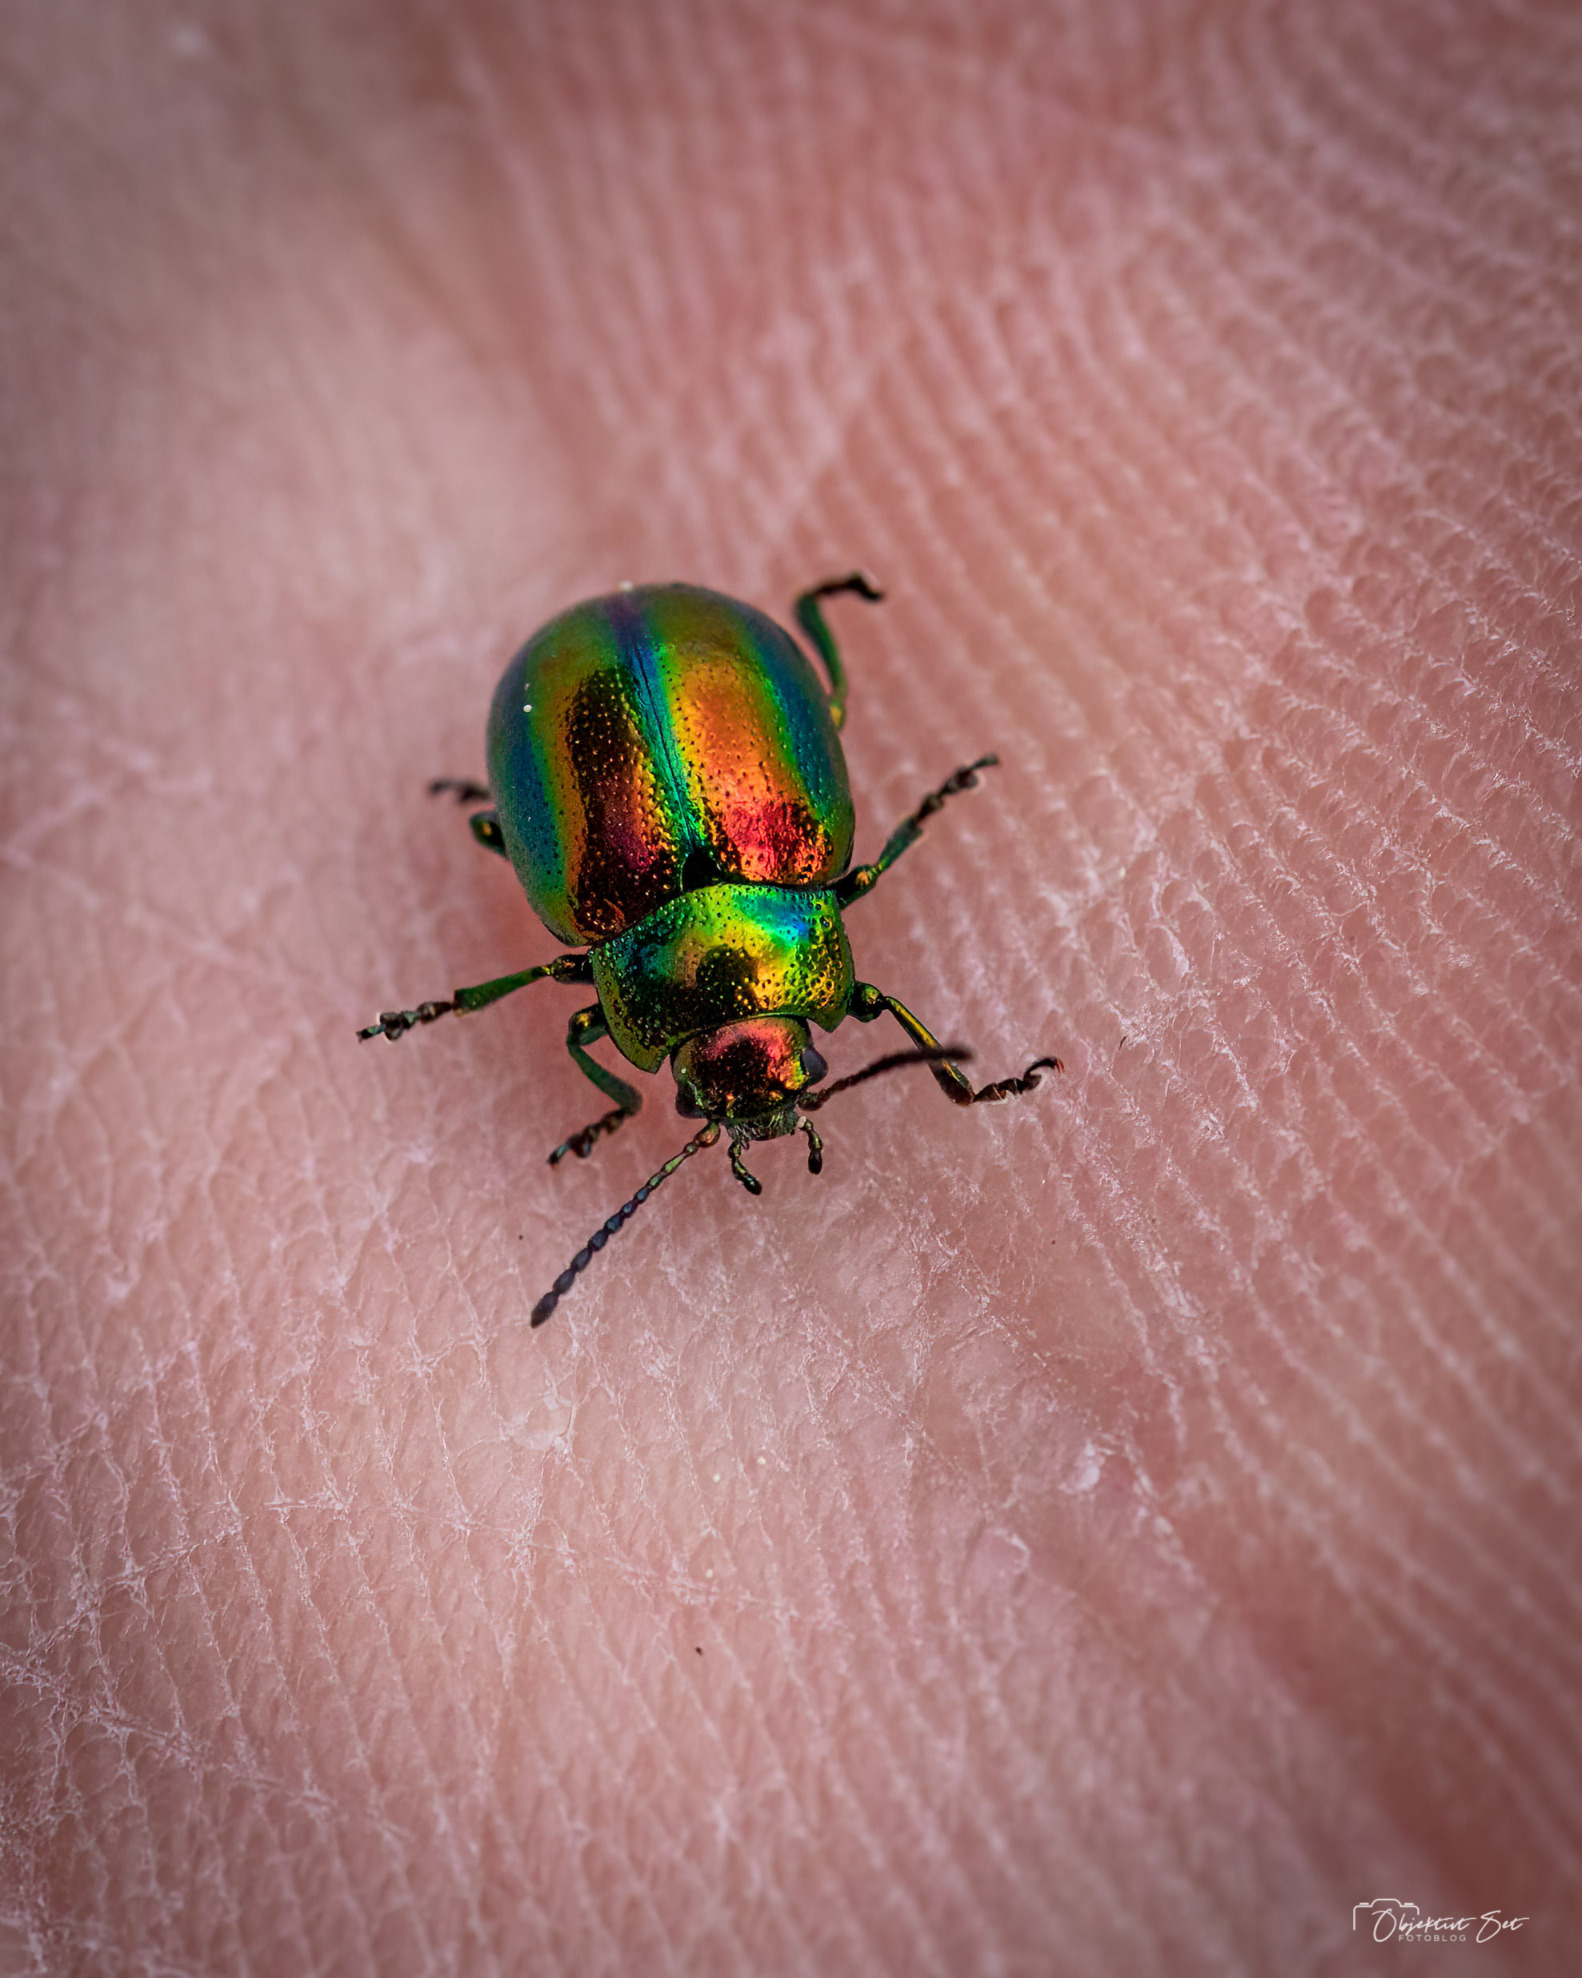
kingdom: Animalia
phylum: Arthropoda
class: Insecta
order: Coleoptera
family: Chrysomelidae
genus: Chrysolina
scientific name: Chrysolina fastuosa
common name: Tvetandbladbille
